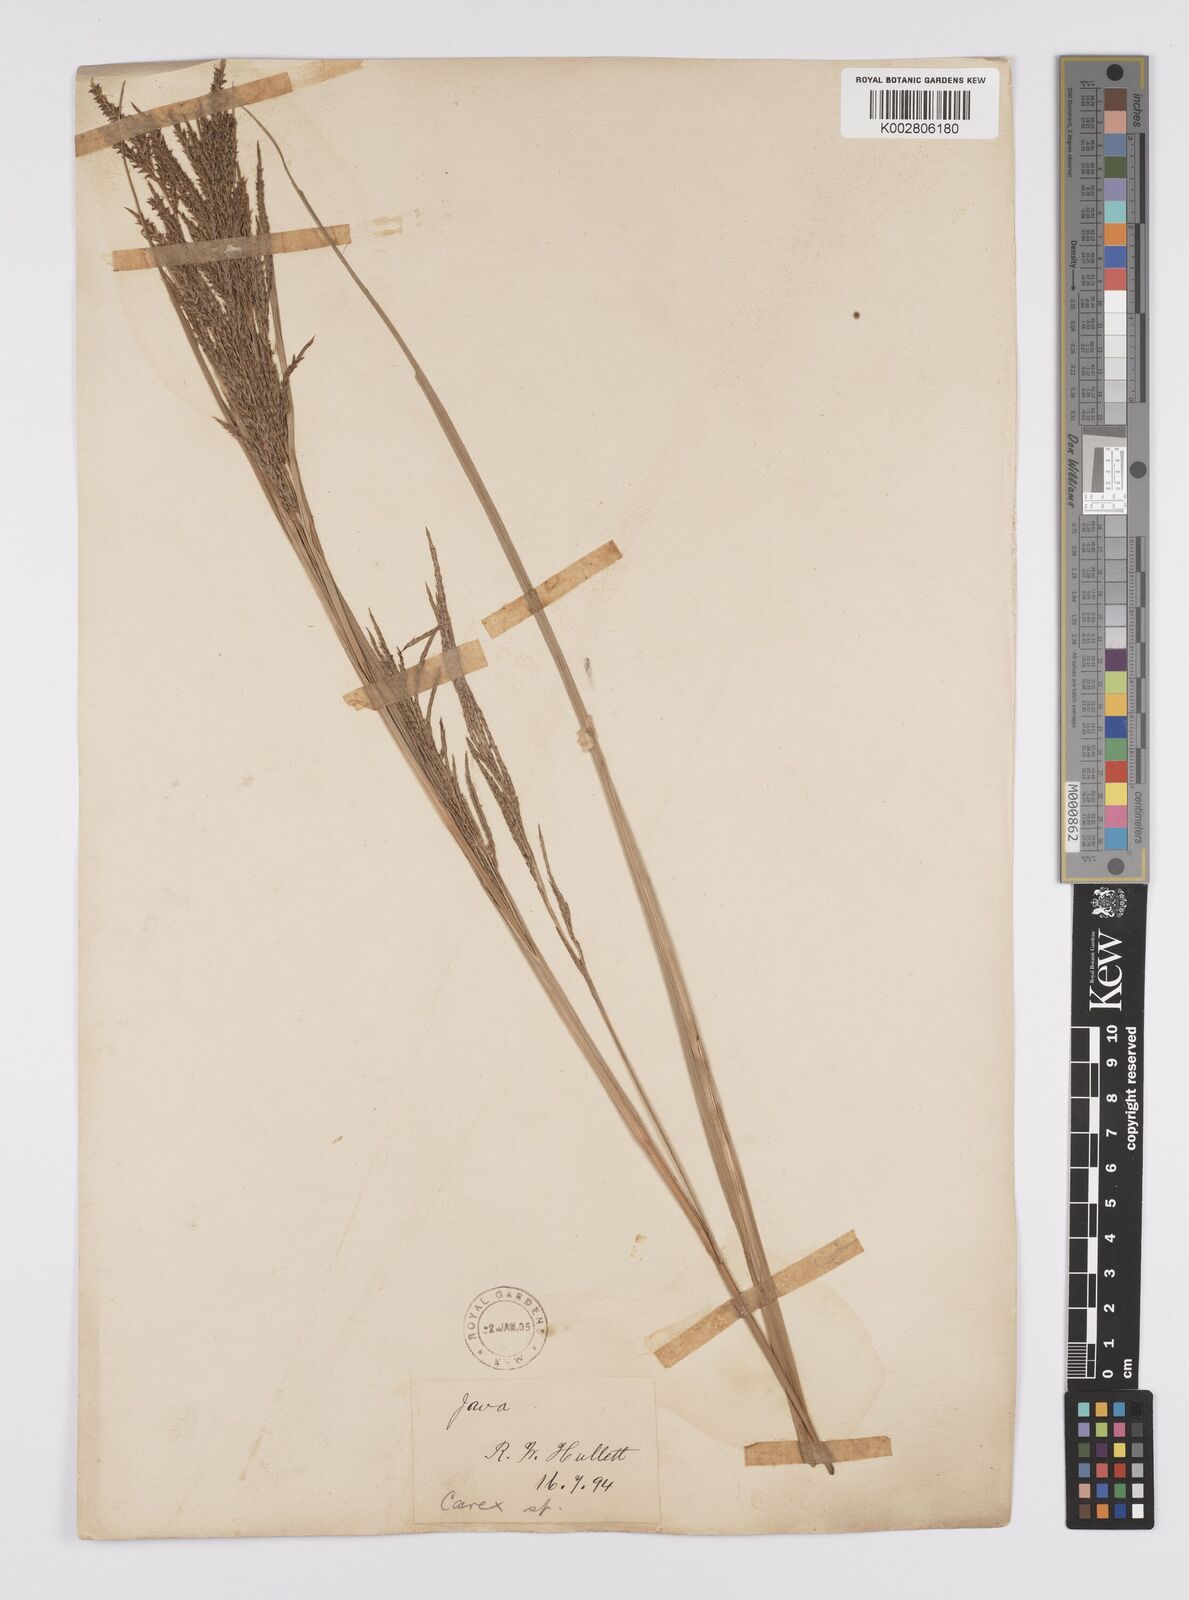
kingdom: Plantae
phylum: Tracheophyta
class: Liliopsida
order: Poales
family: Cyperaceae
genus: Carex
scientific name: Carex baccans
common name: Crimson seeded sedge
